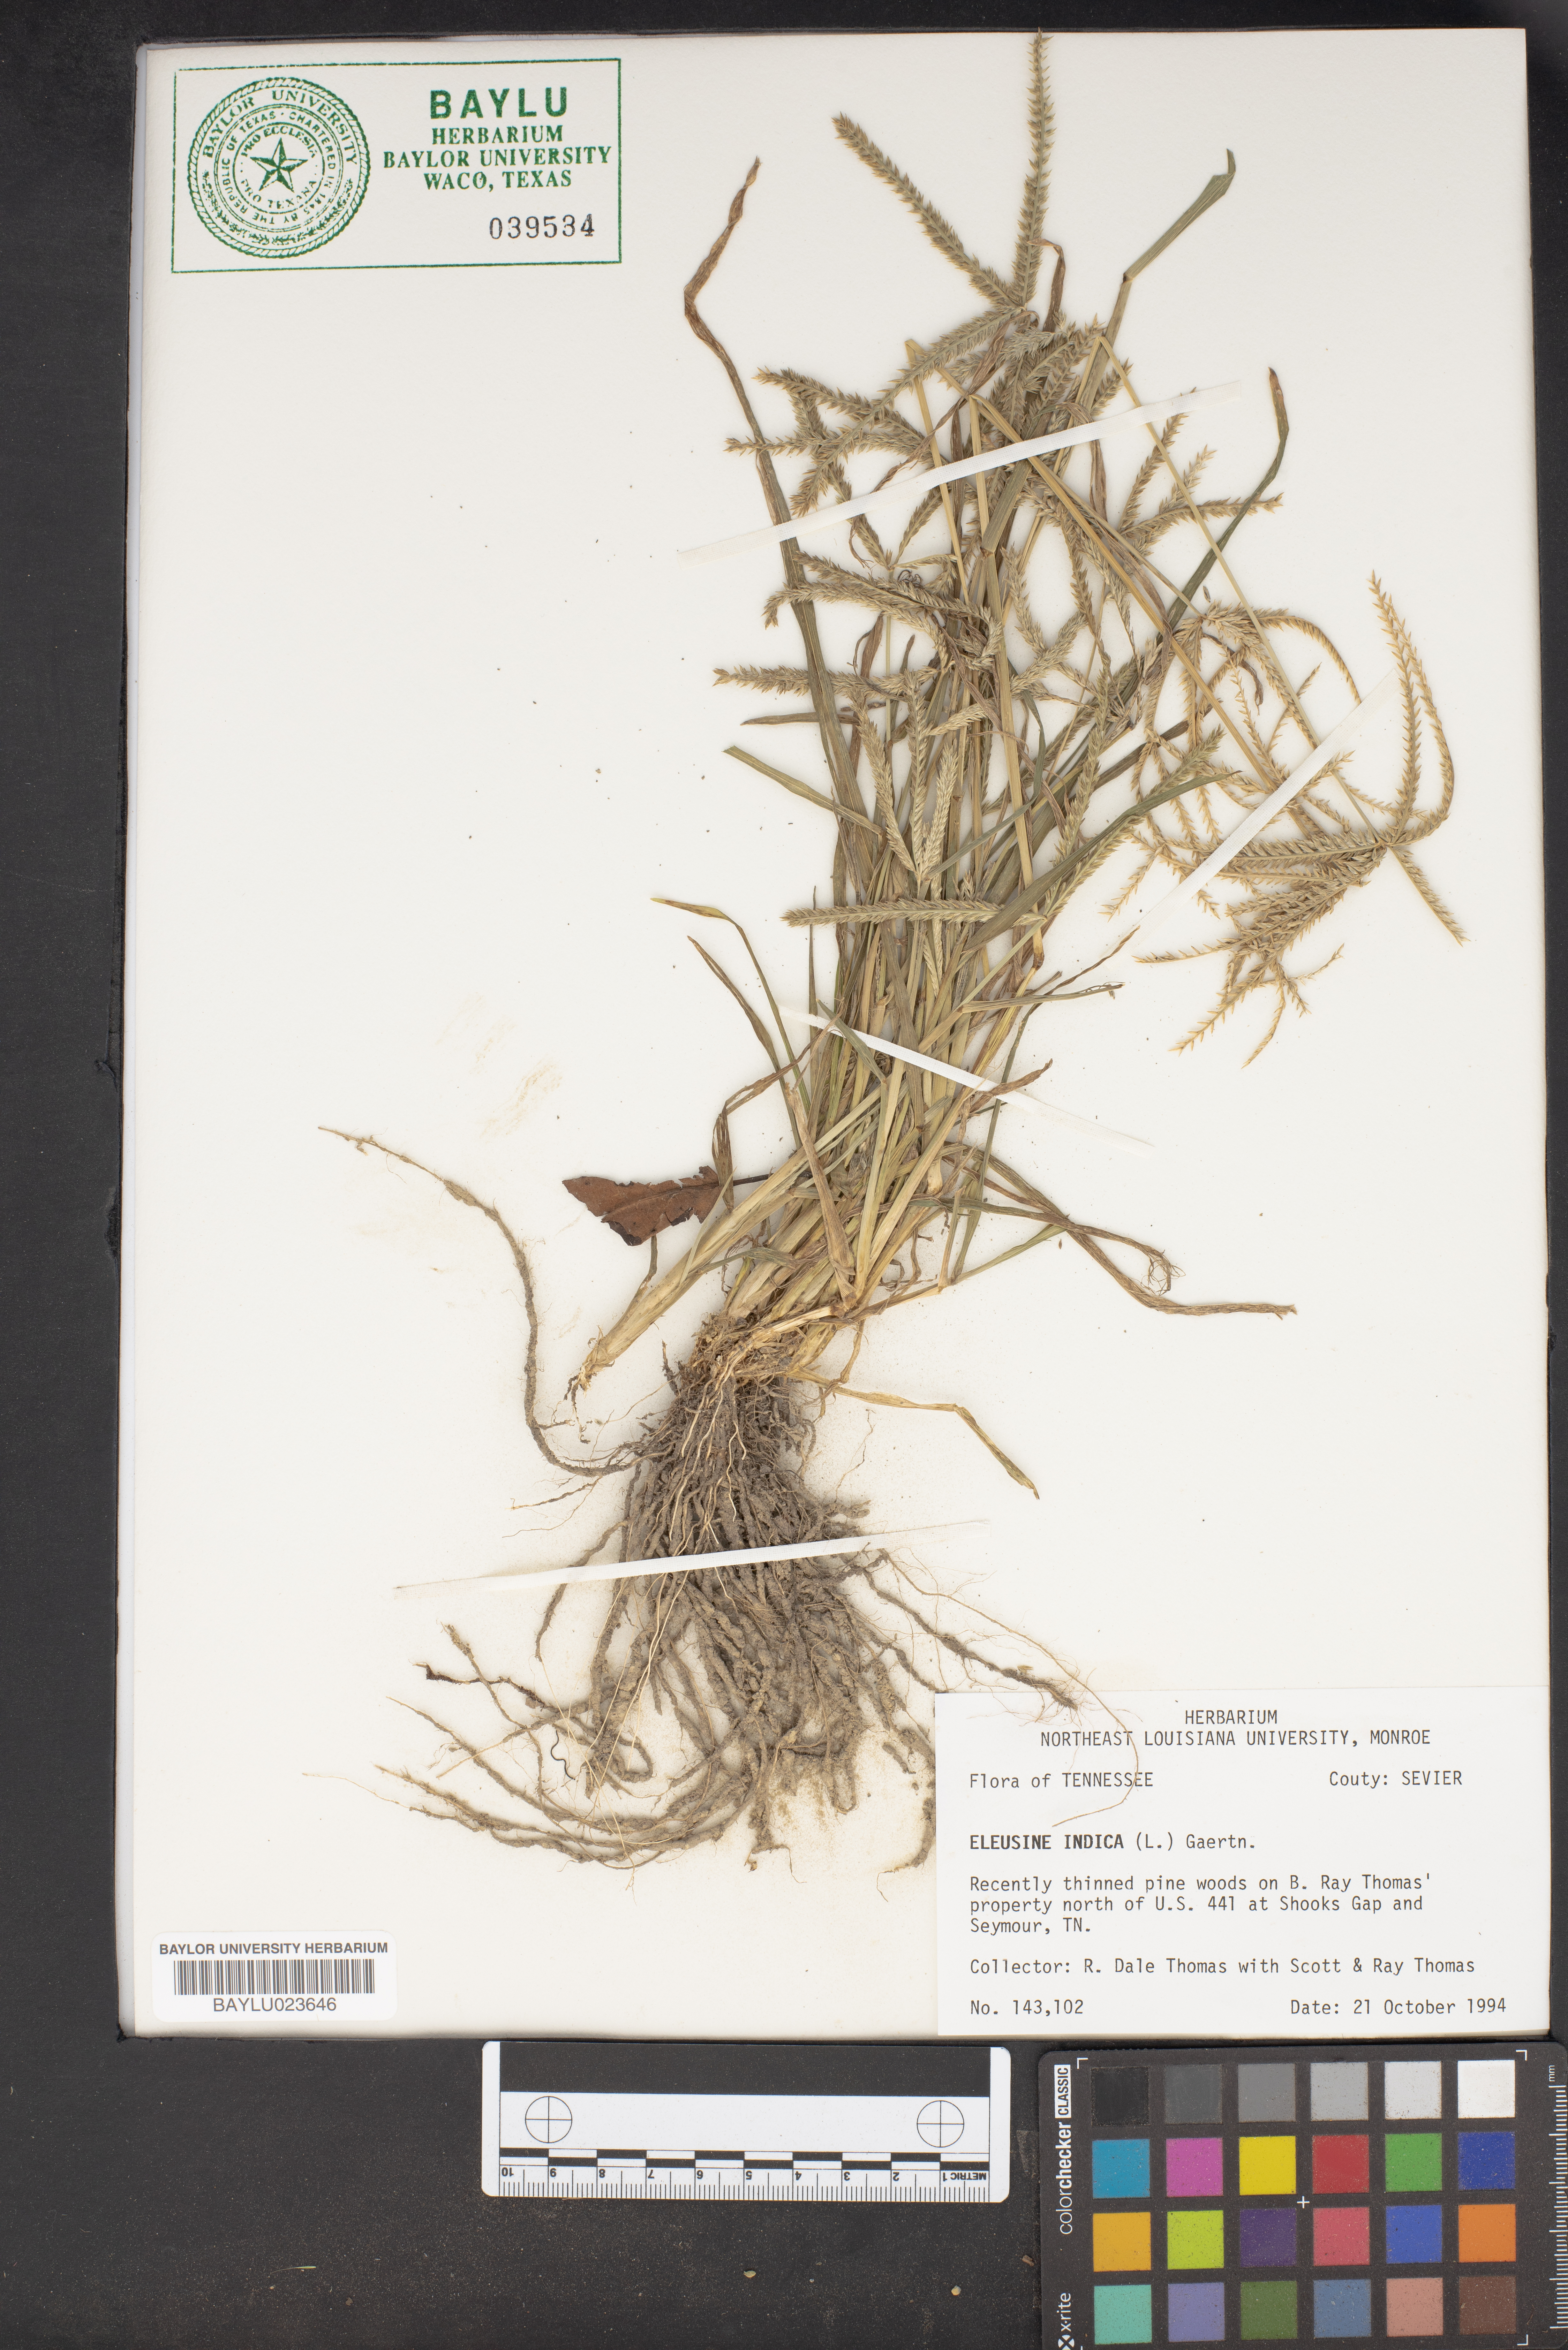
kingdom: Plantae
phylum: Tracheophyta
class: Liliopsida
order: Poales
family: Poaceae
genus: Eleusine
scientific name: Eleusine indica
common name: Yard-grass
